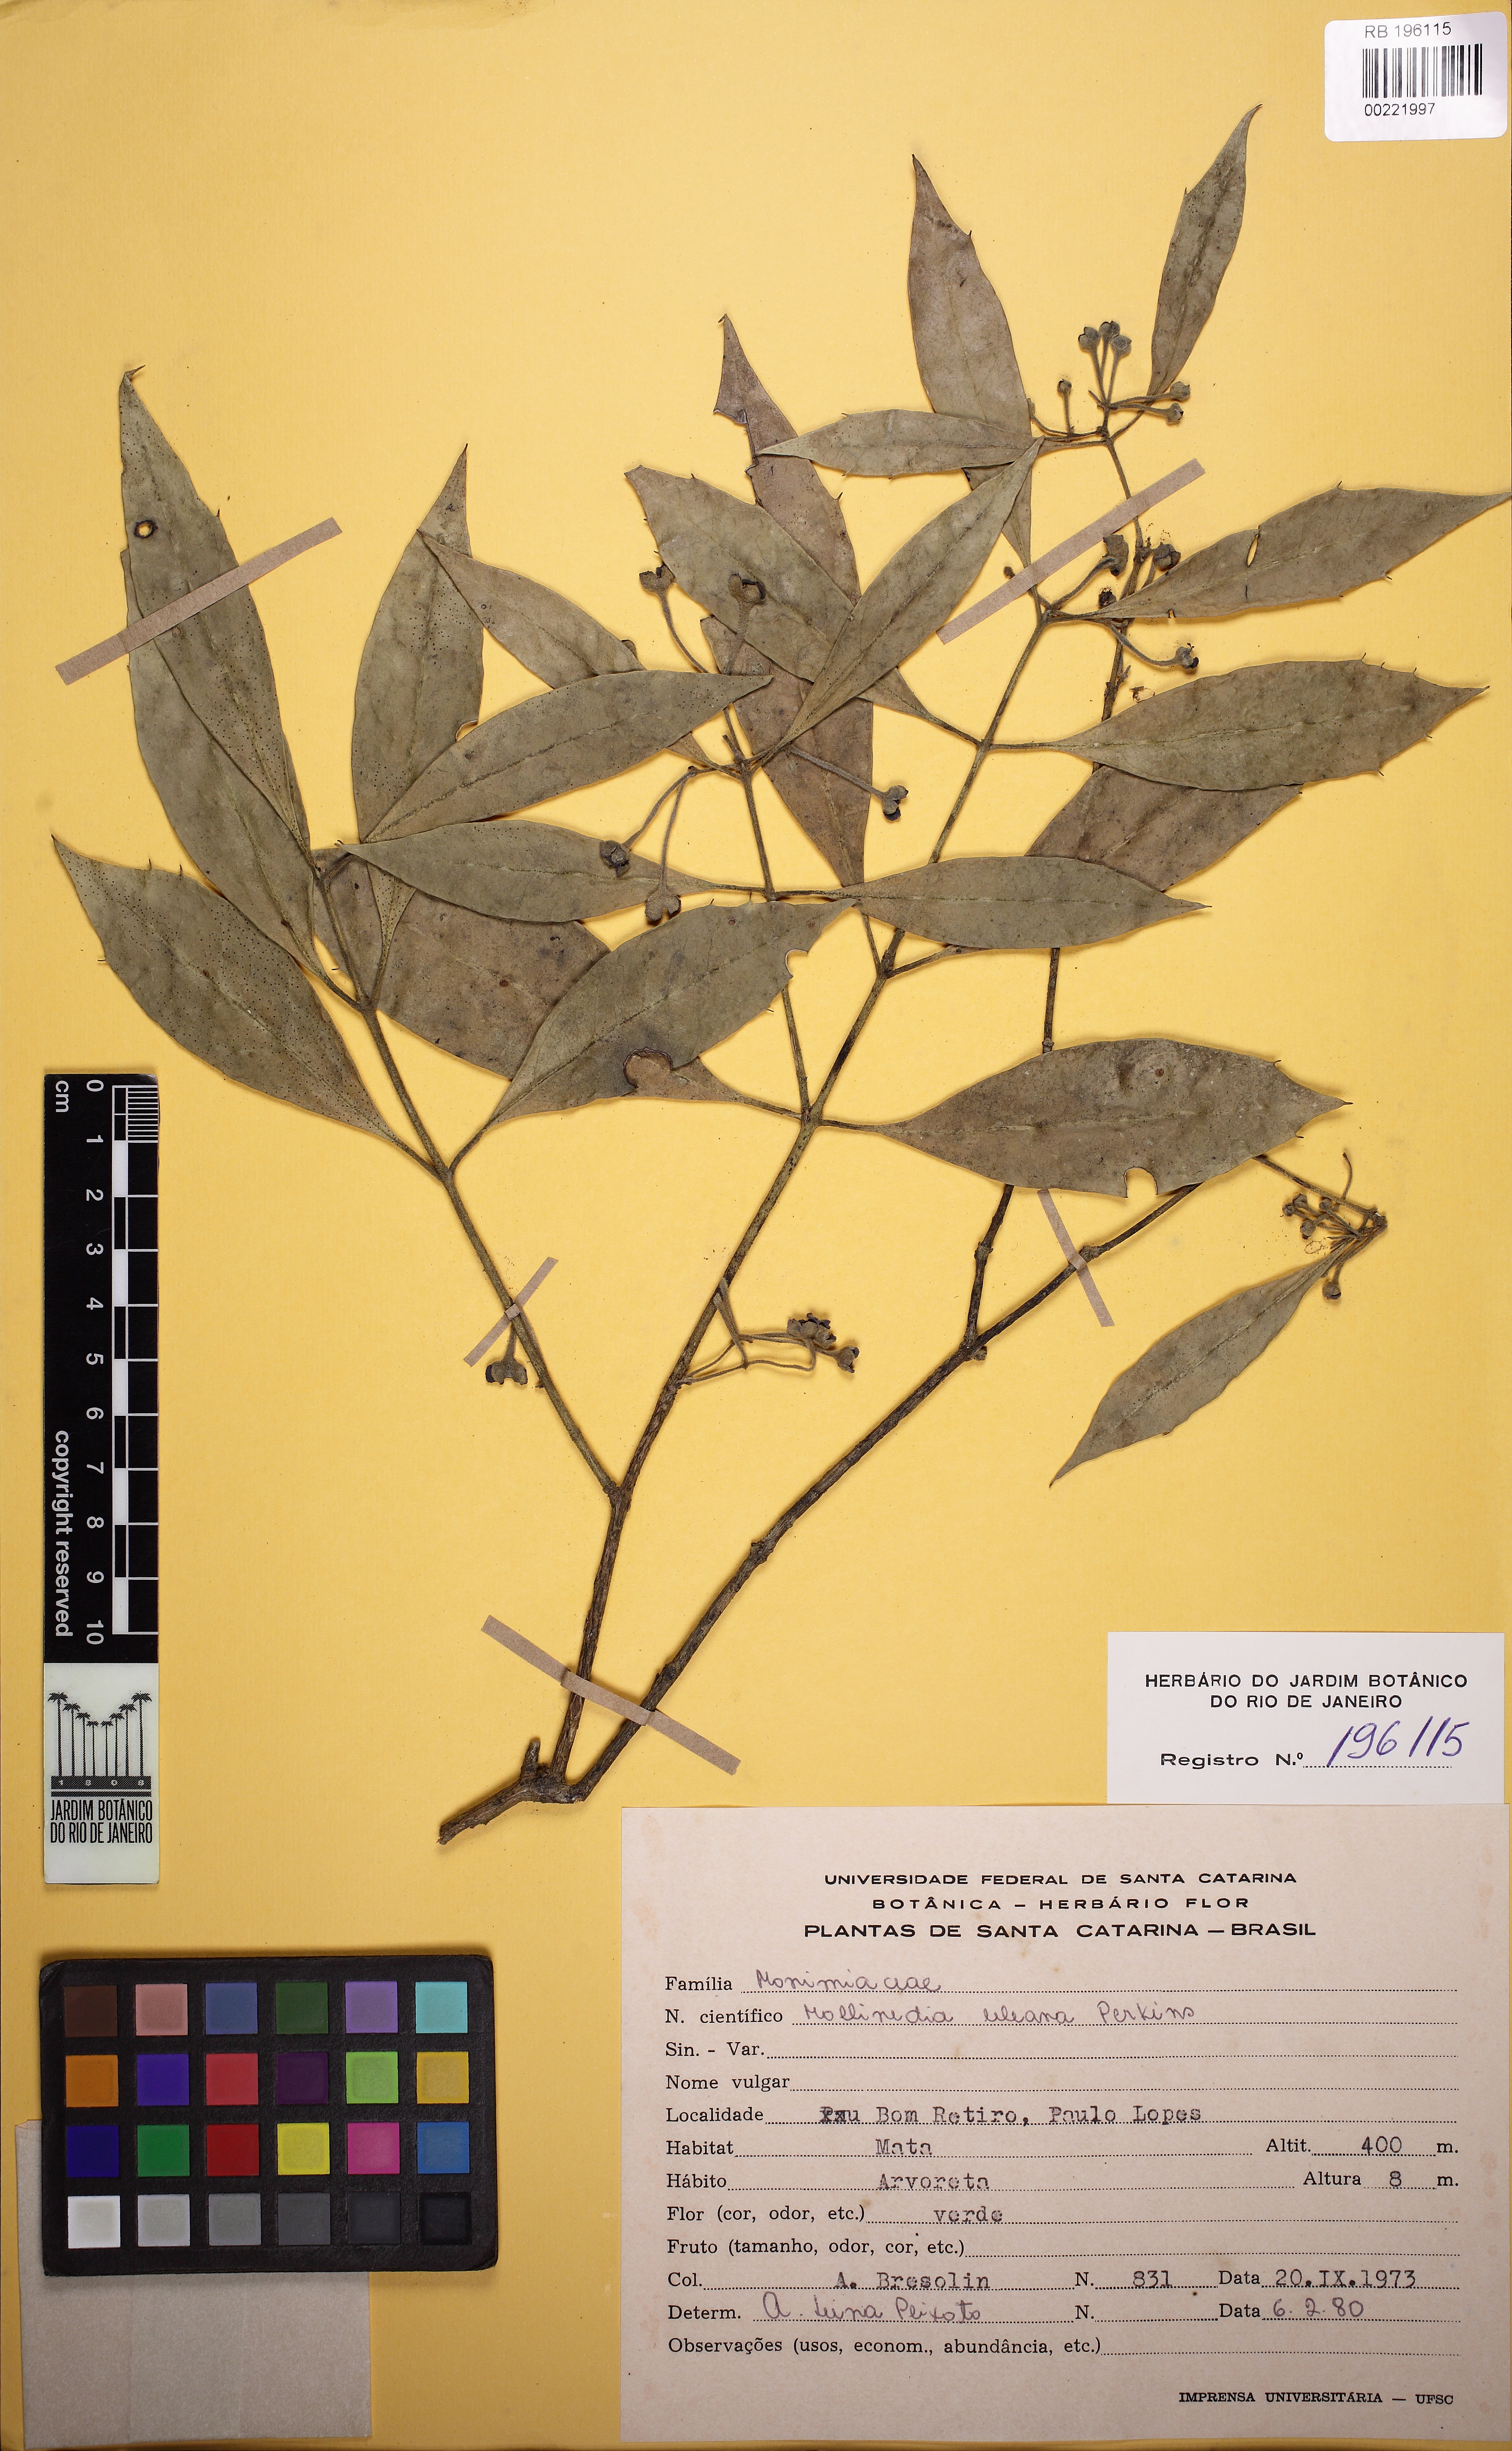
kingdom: Plantae
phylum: Tracheophyta
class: Magnoliopsida
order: Laurales
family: Monimiaceae
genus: Mollinedia
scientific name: Mollinedia uleana
